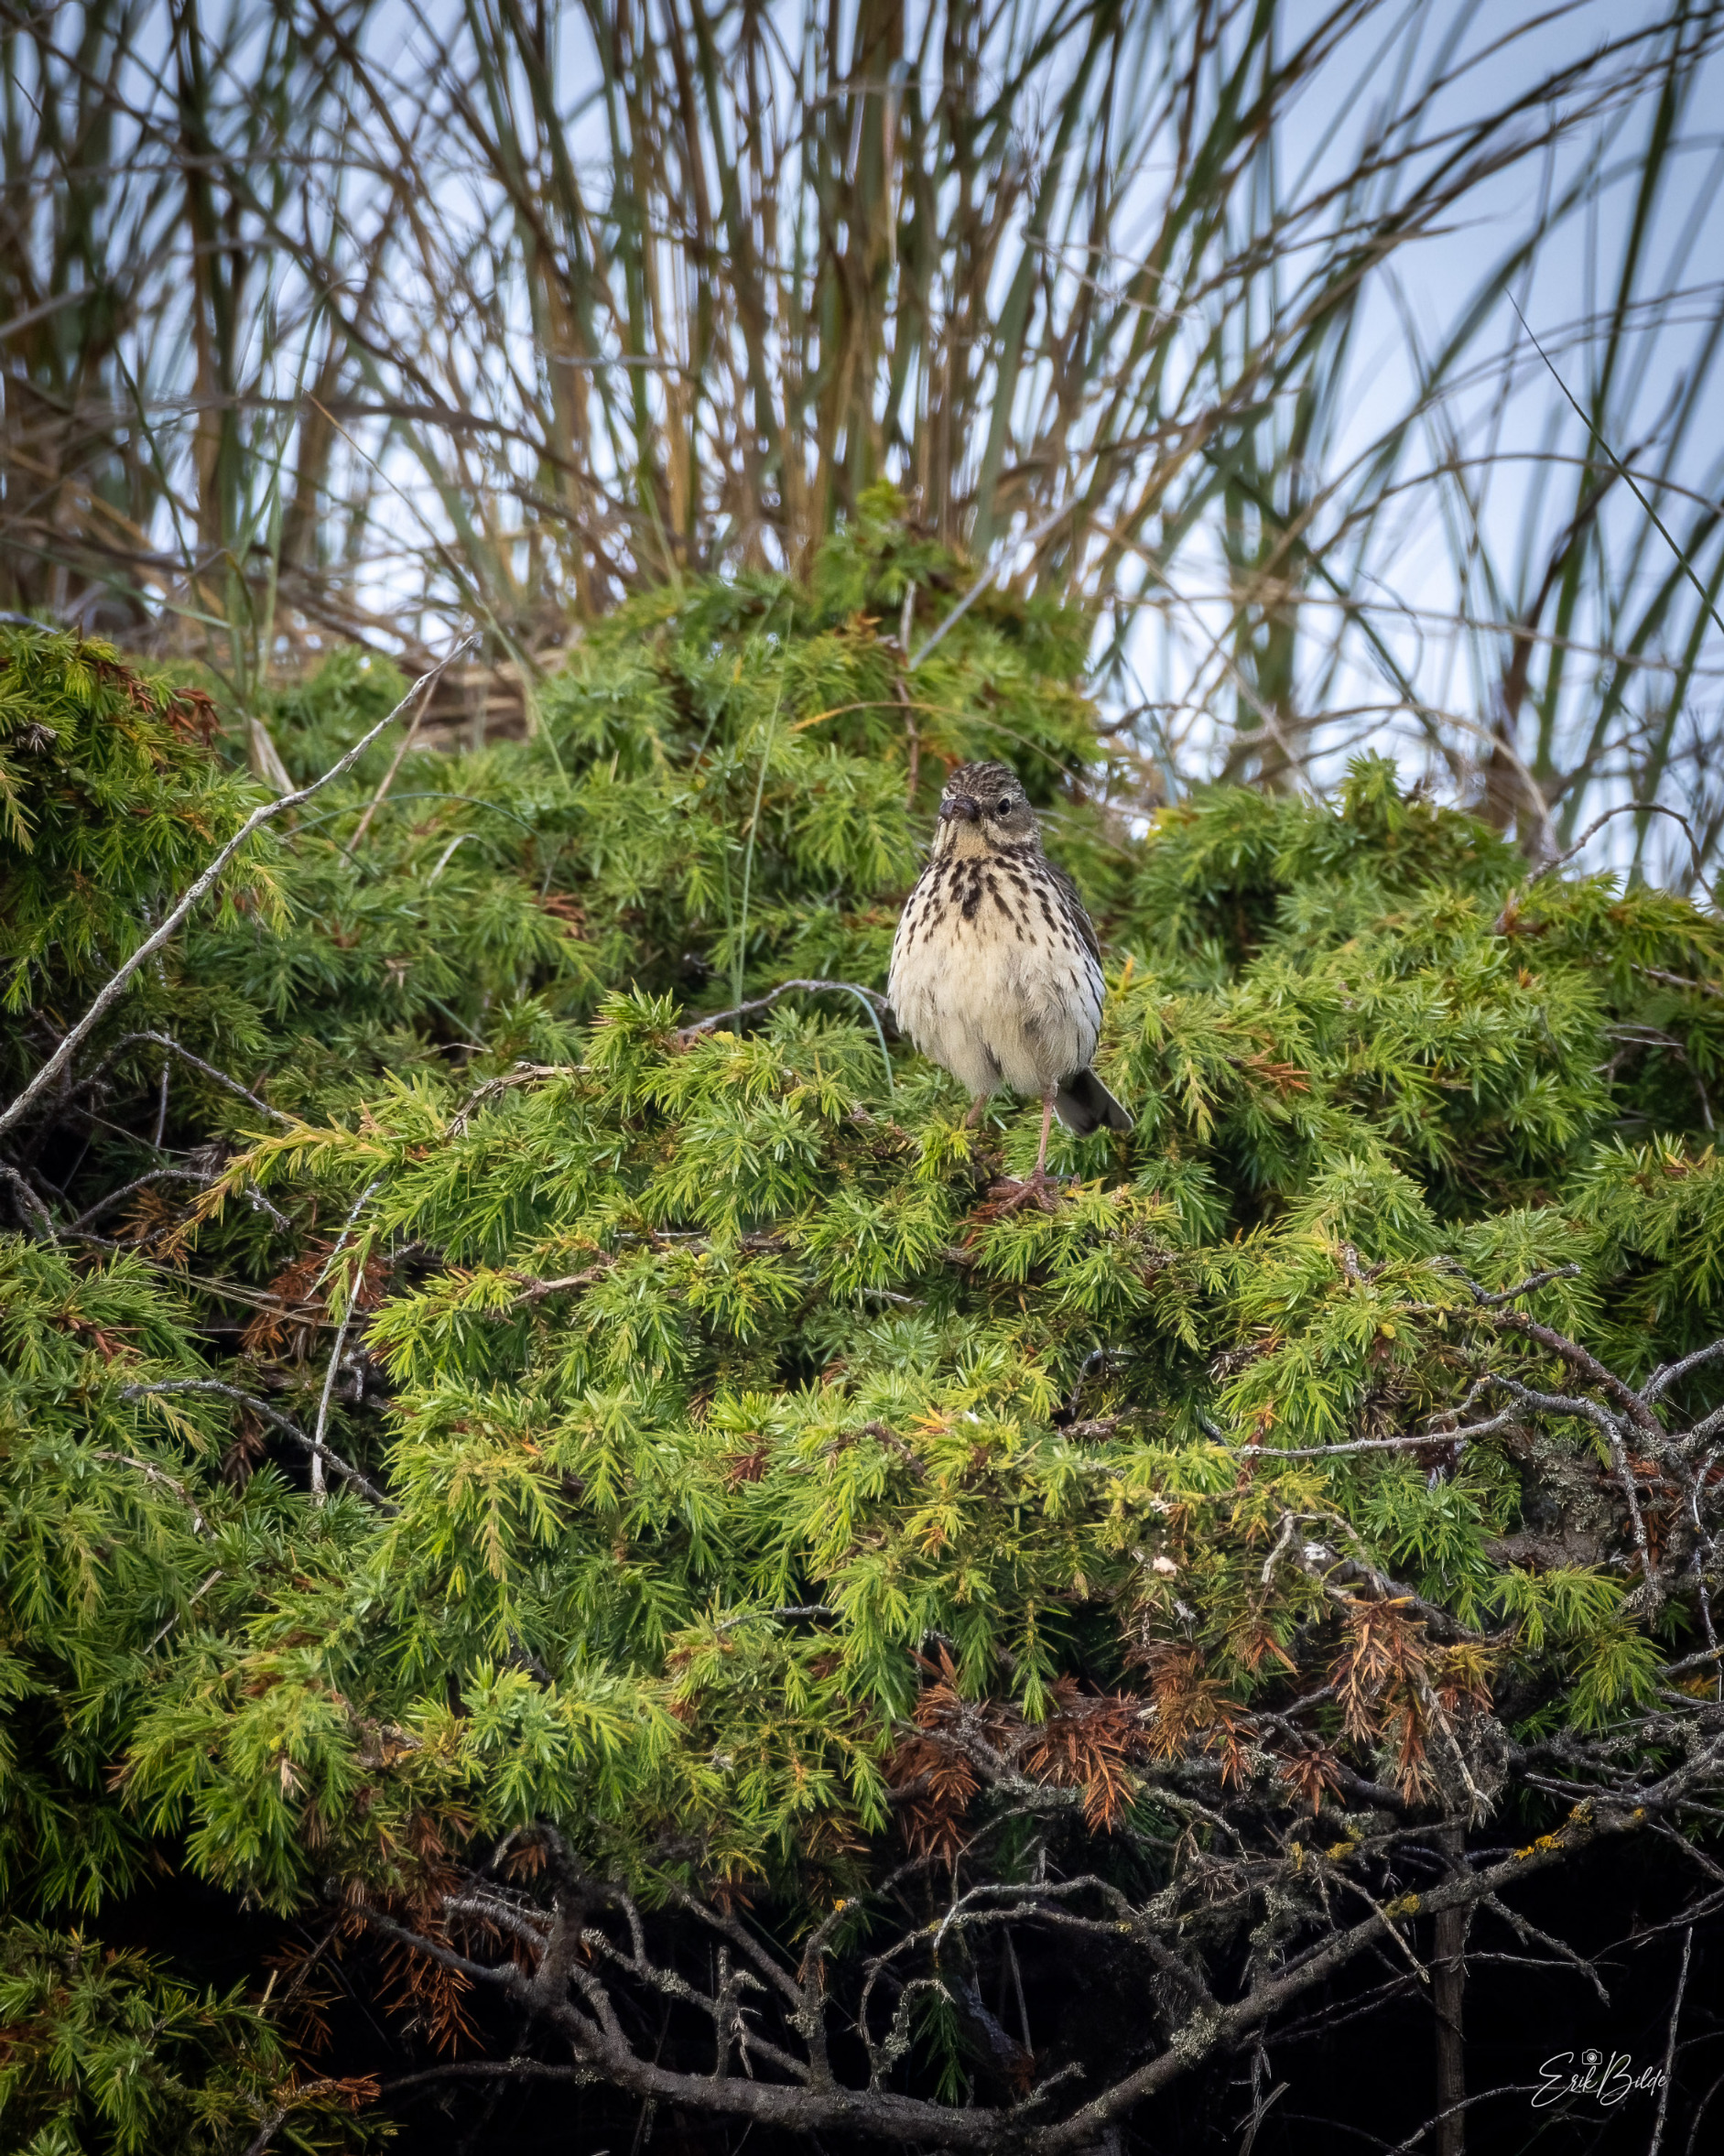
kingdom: Animalia
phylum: Chordata
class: Aves
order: Passeriformes
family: Motacillidae
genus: Anthus
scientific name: Anthus pratensis
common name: Engpiber
